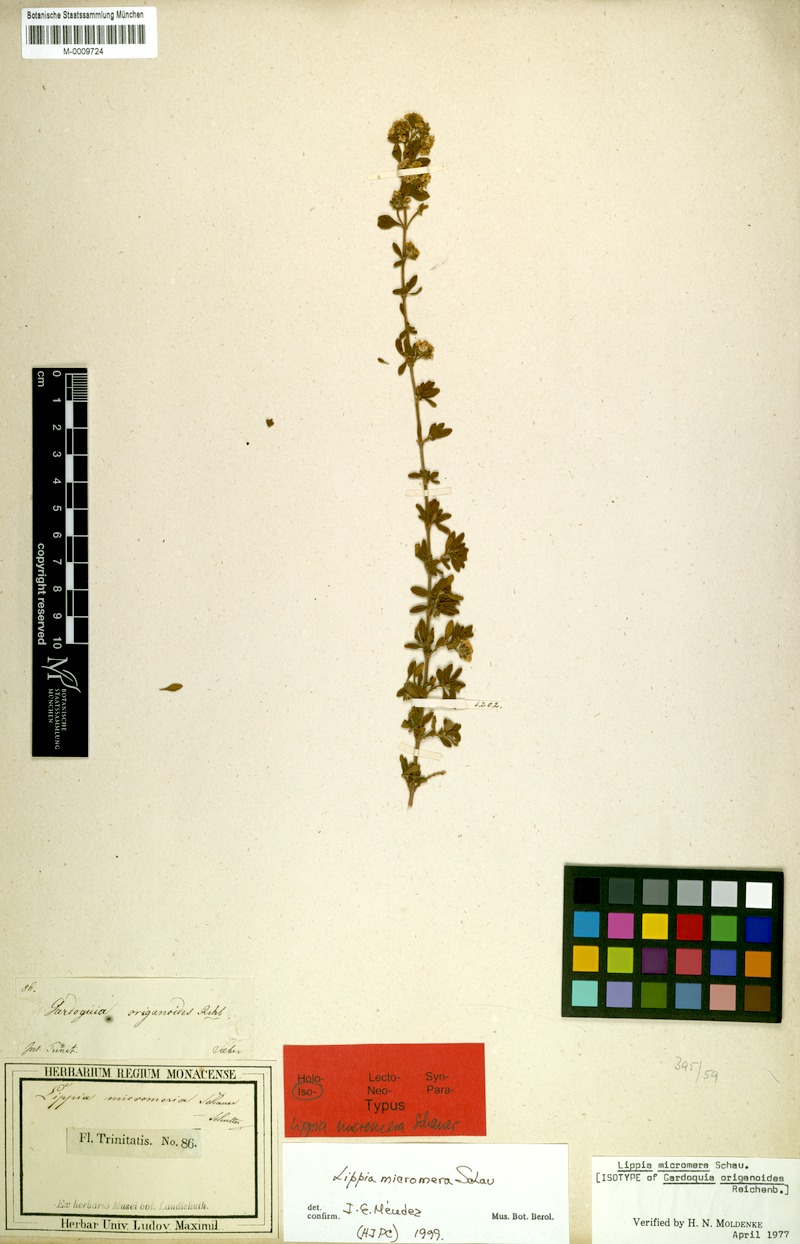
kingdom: Plantae
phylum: Tracheophyta
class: Magnoliopsida
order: Lamiales
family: Verbenaceae
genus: Lippia
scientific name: Lippia micromera
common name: Puerto rican oregano
